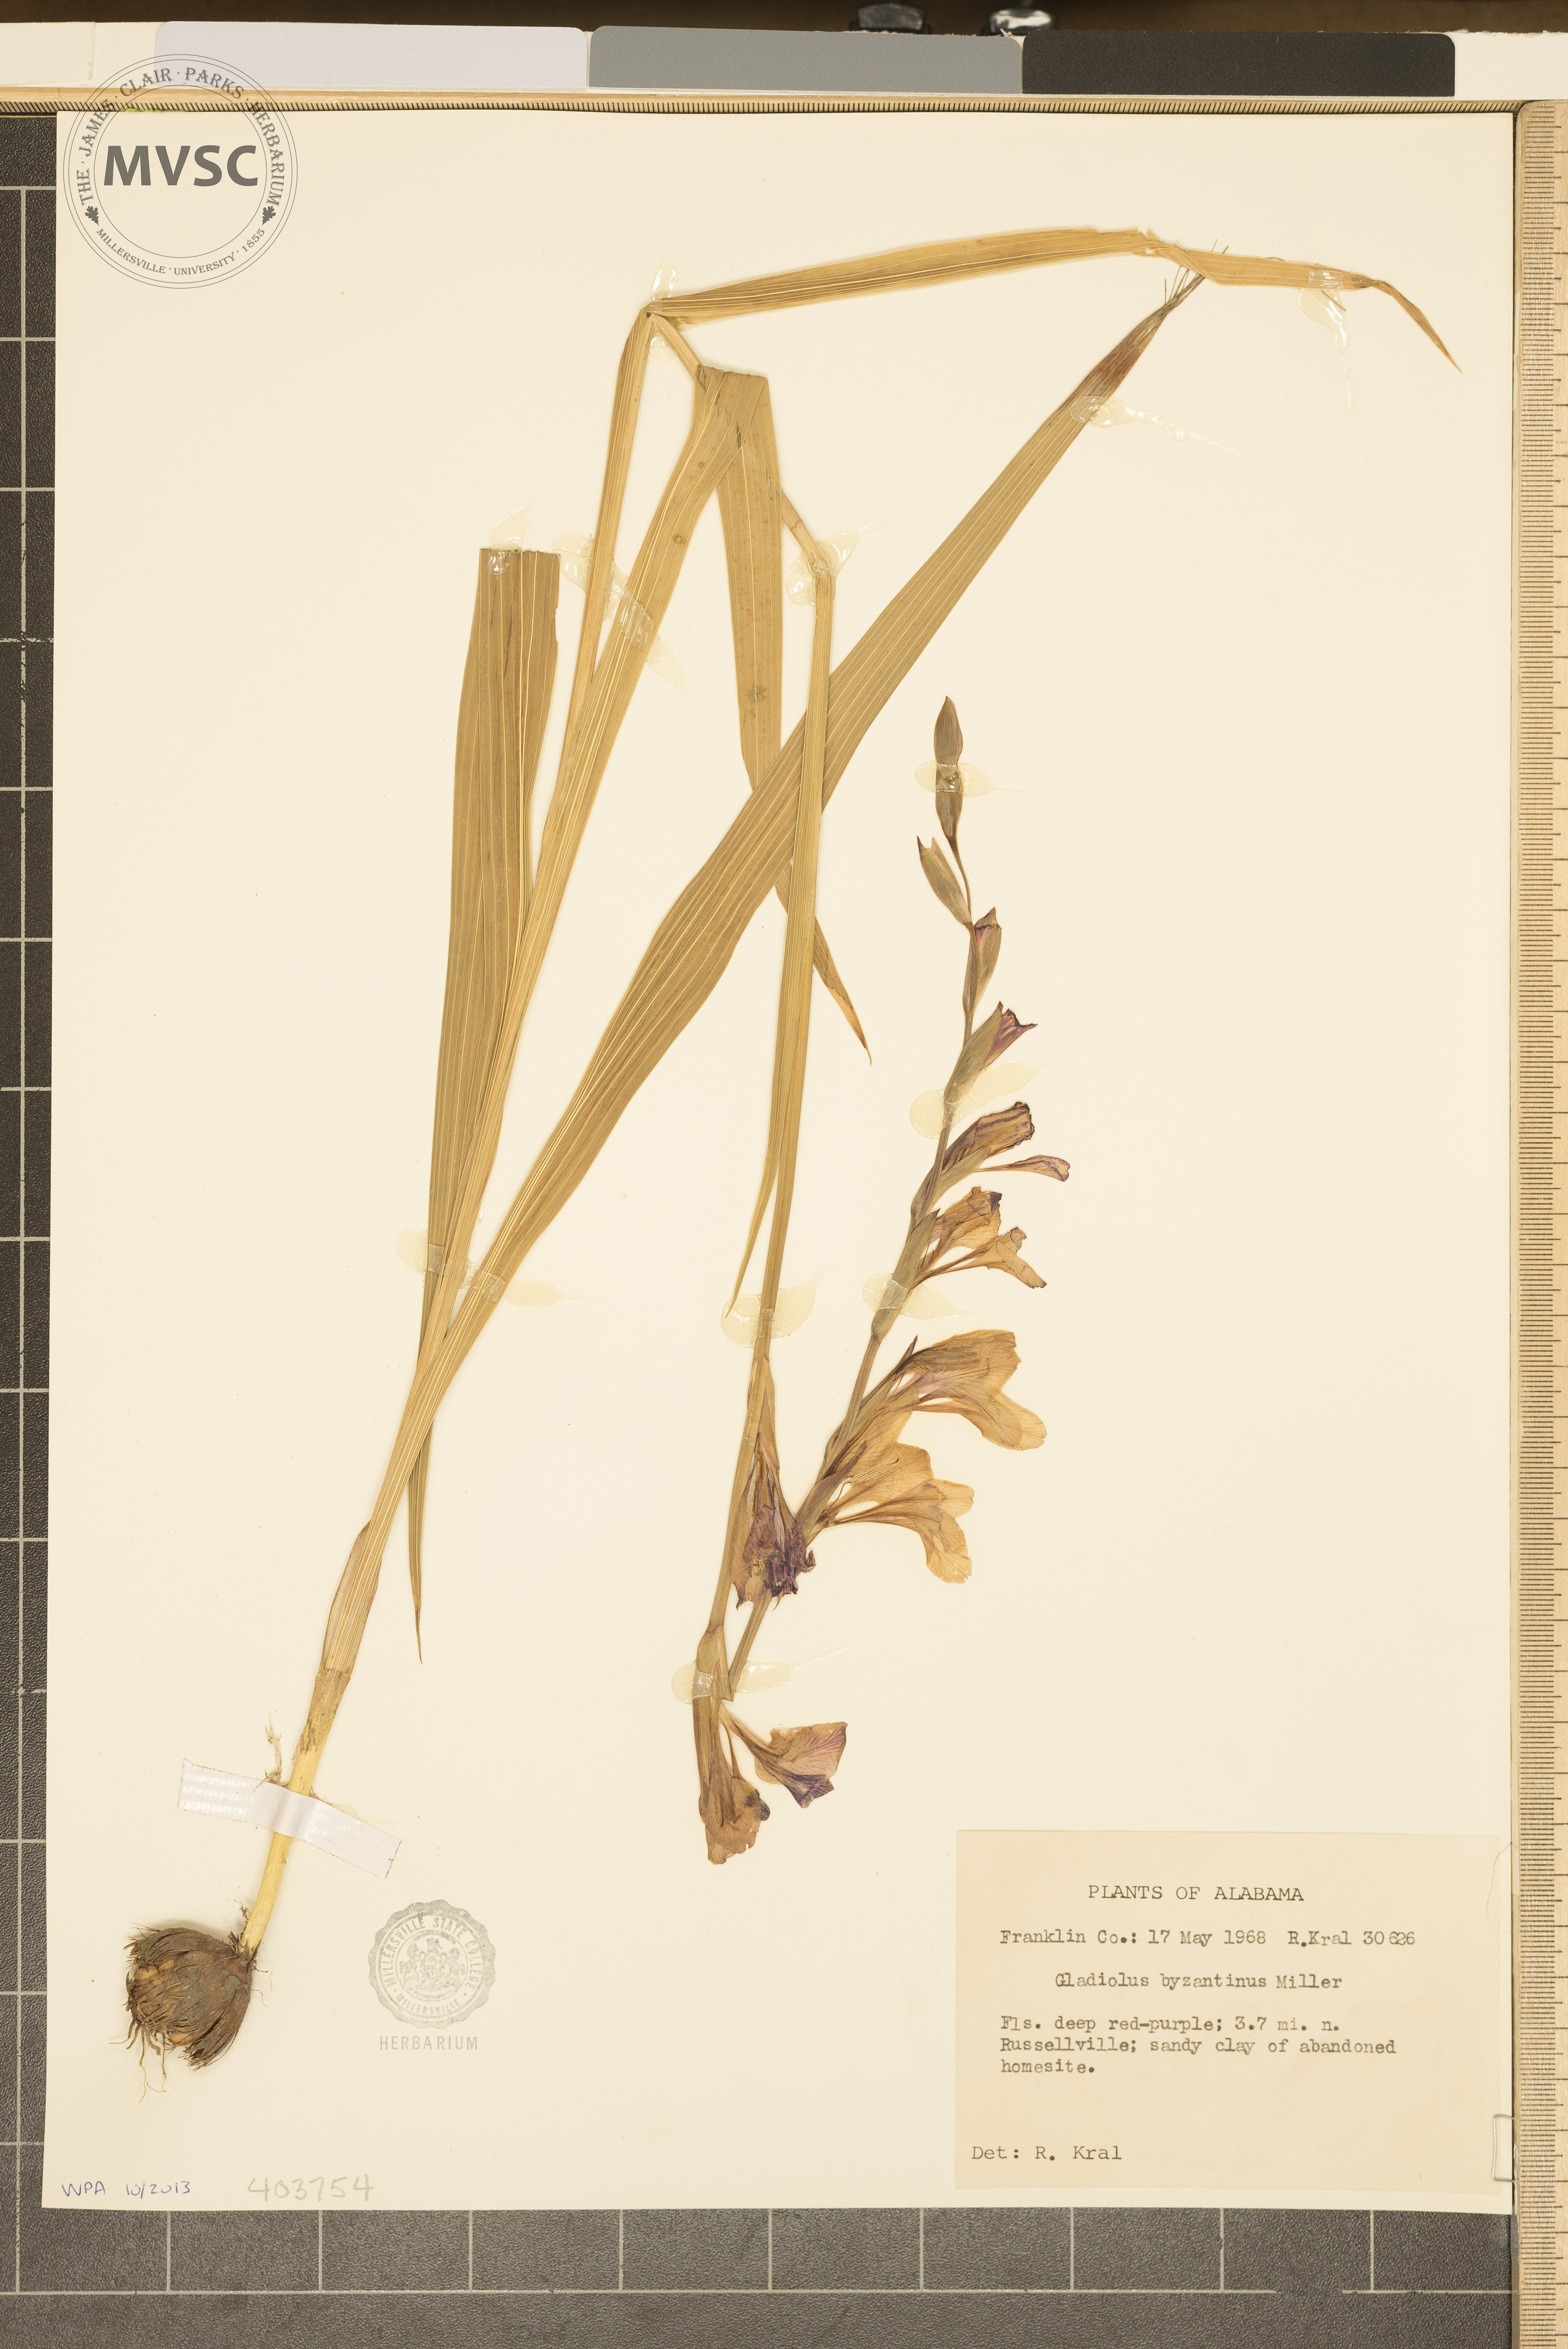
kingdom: Plantae
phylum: Tracheophyta
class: Liliopsida
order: Asparagales
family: Iridaceae
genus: Gladiolus
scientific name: Gladiolus byzantinus
